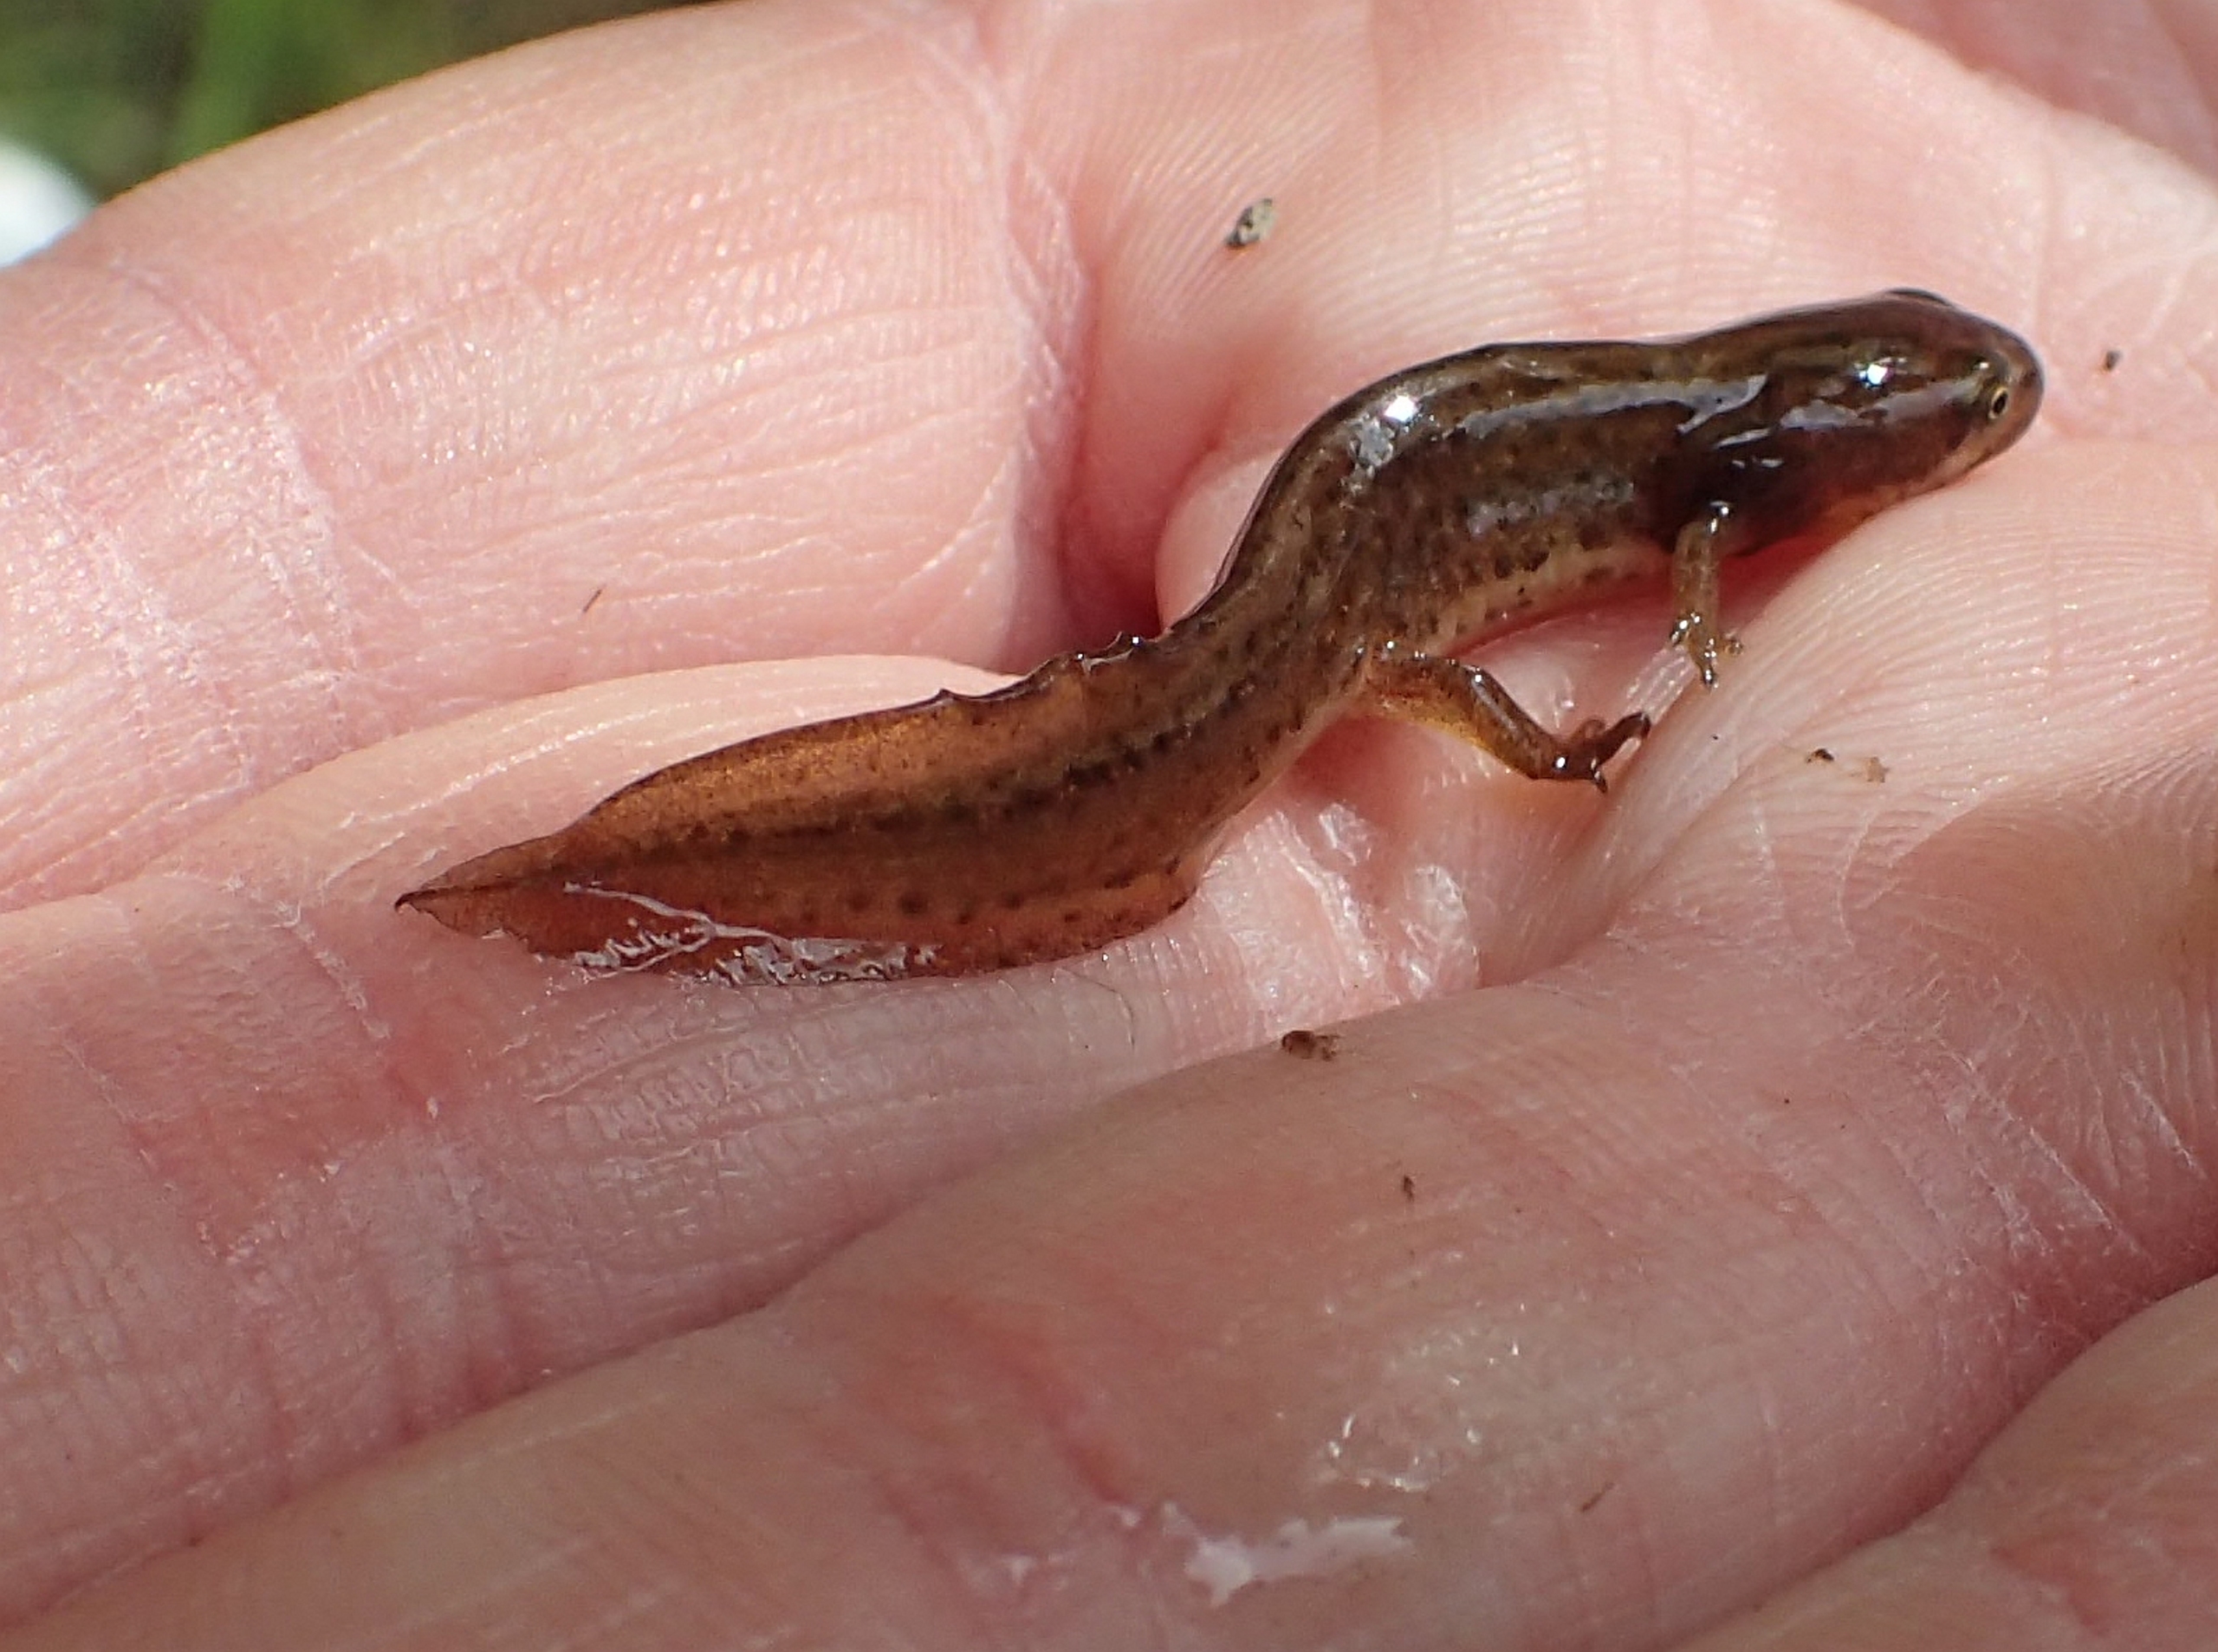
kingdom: Animalia
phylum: Chordata
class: Amphibia
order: Caudata
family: Salamandridae
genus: Lissotriton
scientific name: Lissotriton vulgaris
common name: Lille vandsalamander
